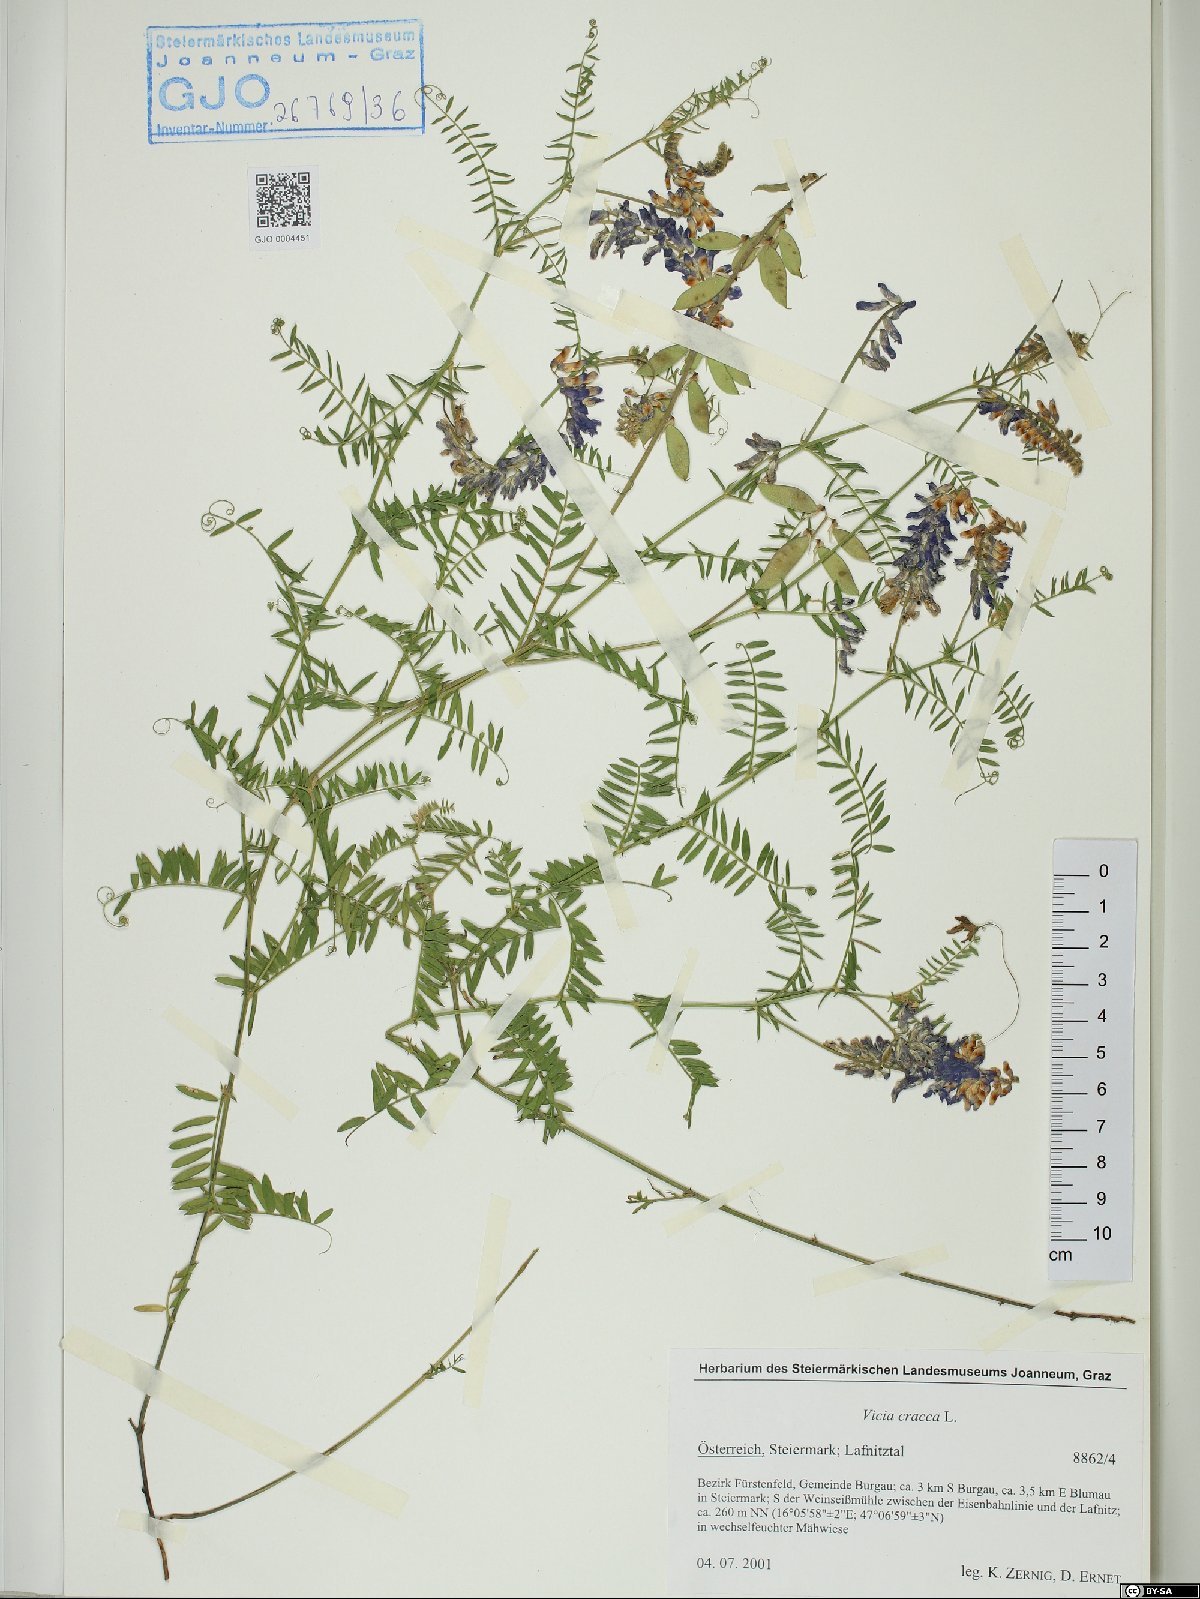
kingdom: Plantae
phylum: Tracheophyta
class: Magnoliopsida
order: Fabales
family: Fabaceae
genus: Vicia
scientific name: Vicia cracca
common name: Bird vetch
